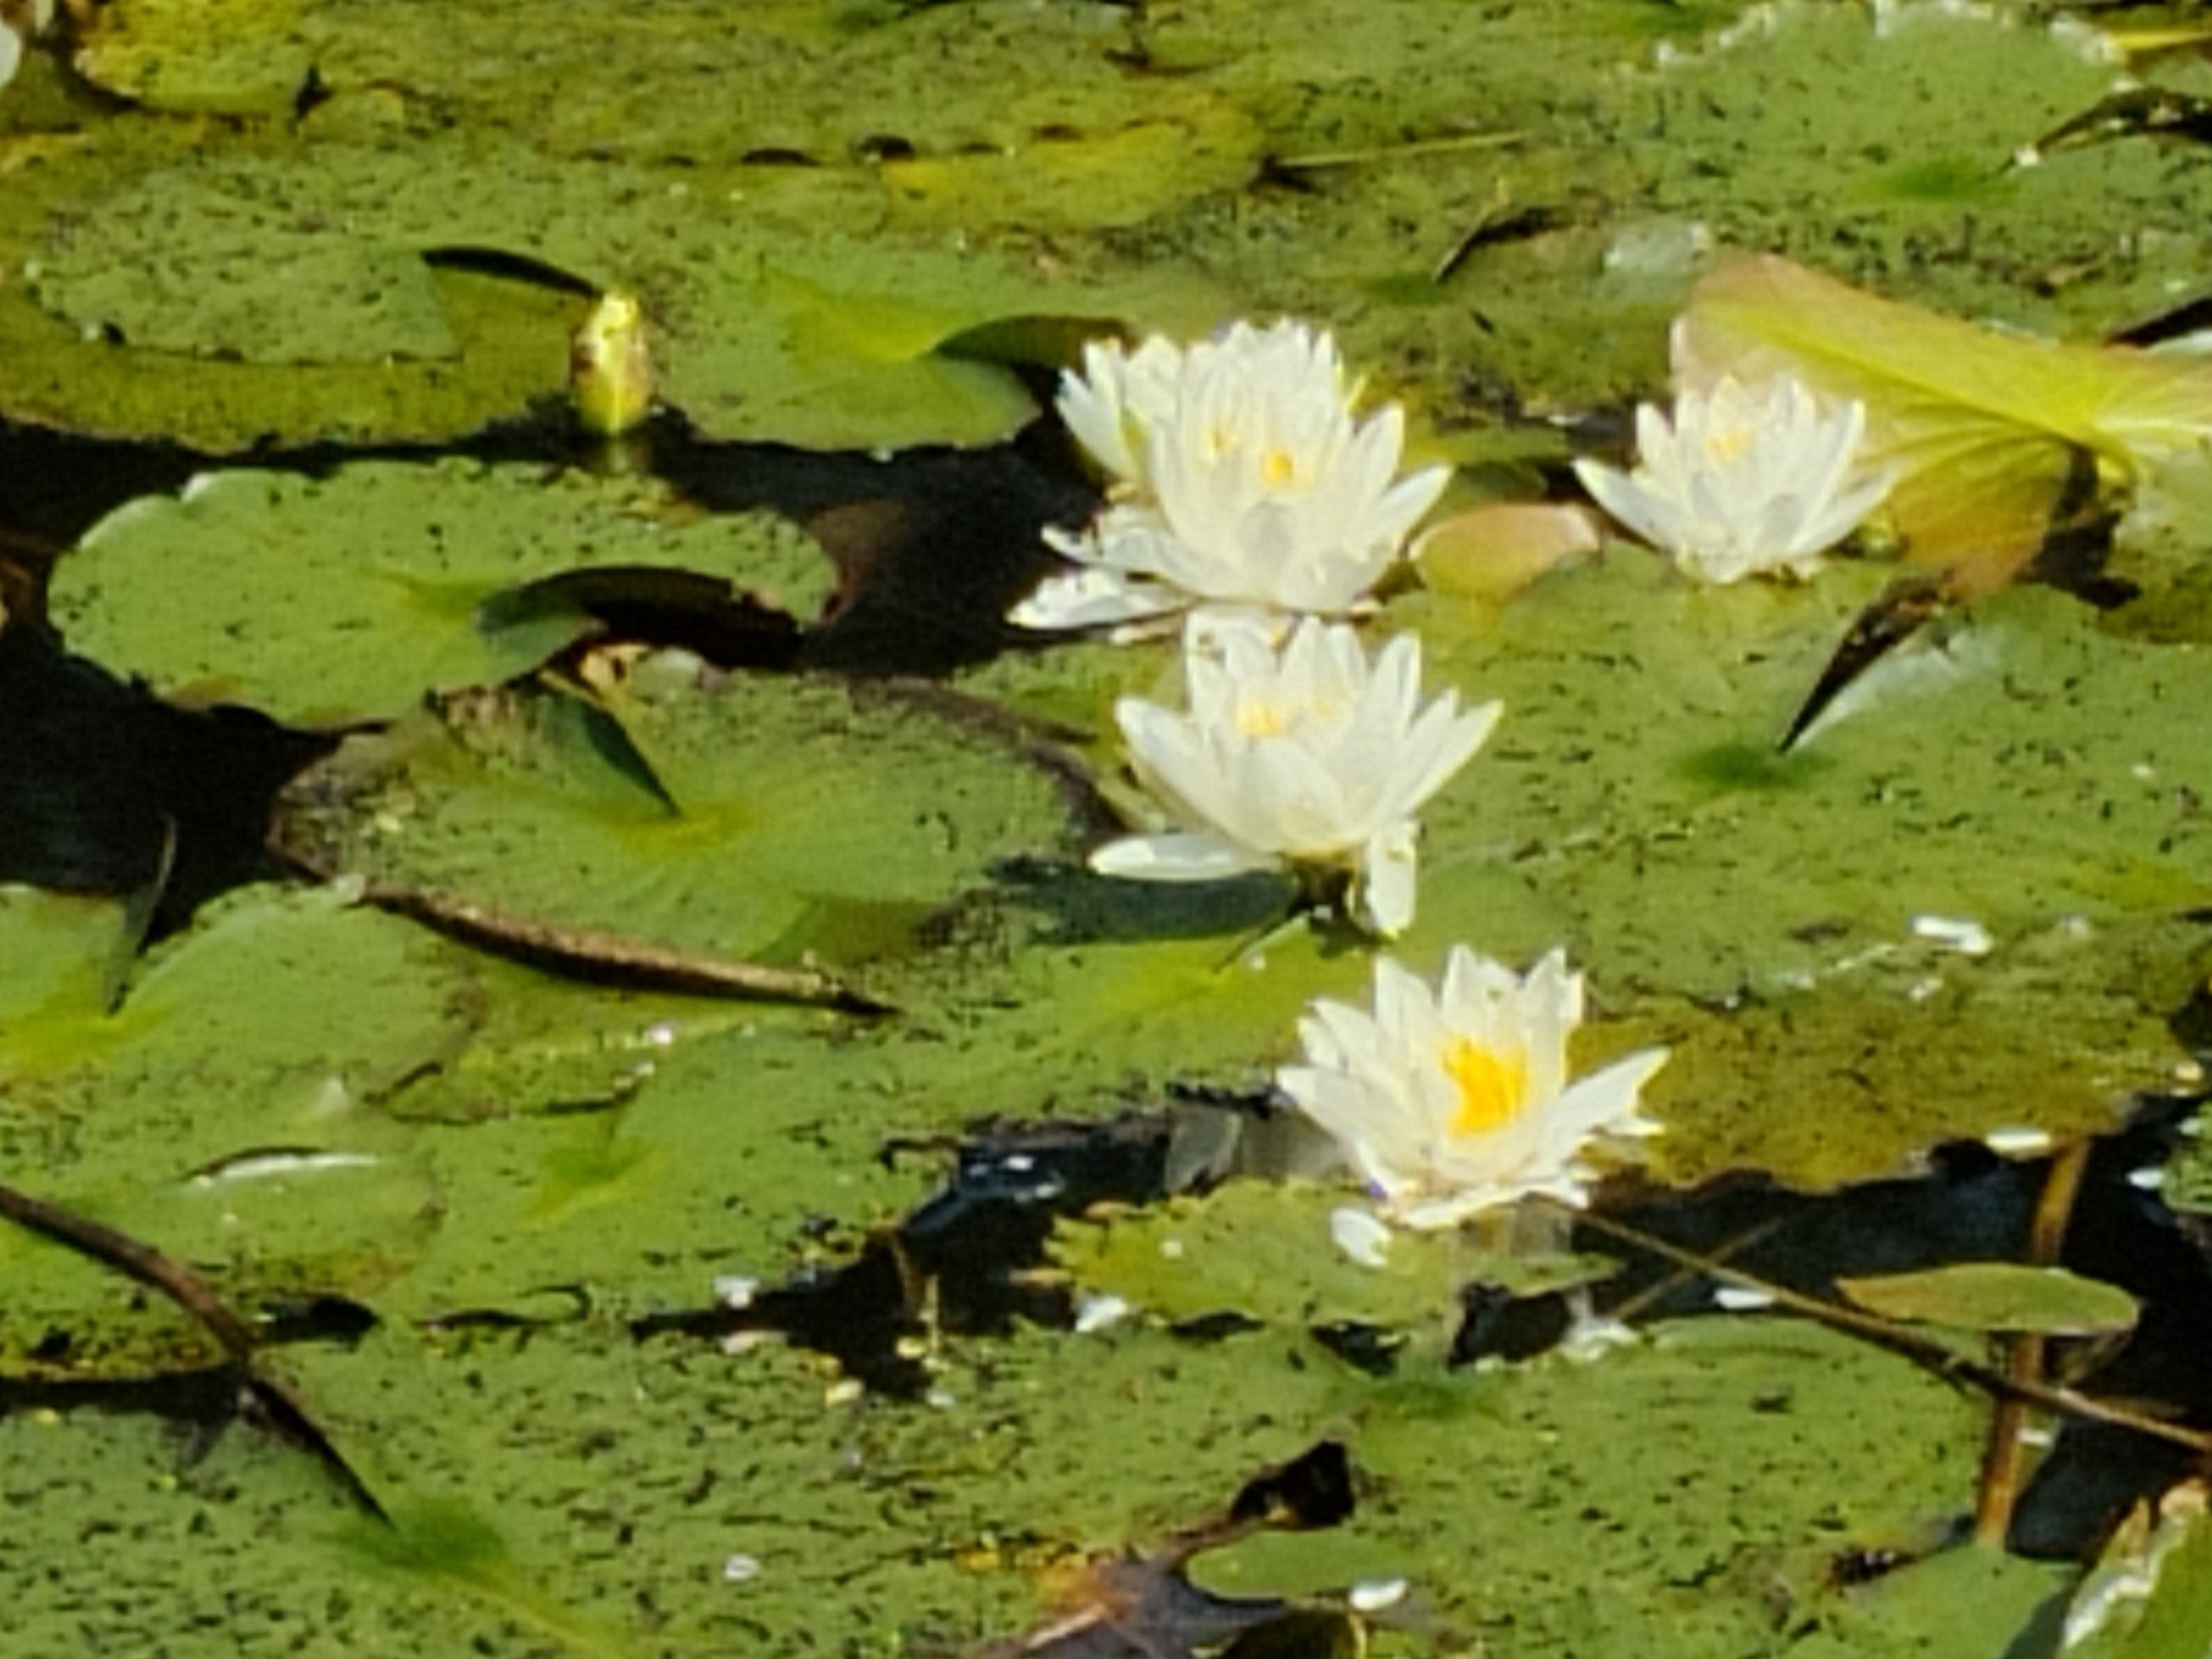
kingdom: Plantae
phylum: Tracheophyta
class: Magnoliopsida
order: Nymphaeales
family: Nymphaeaceae
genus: Nymphaea
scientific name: Nymphaea alba
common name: Hvid åkande
